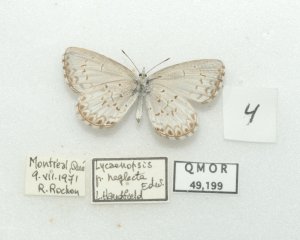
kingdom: Animalia
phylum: Arthropoda
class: Insecta
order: Lepidoptera
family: Lycaenidae
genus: Cyaniris
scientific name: Cyaniris neglecta
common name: Summer Azure
